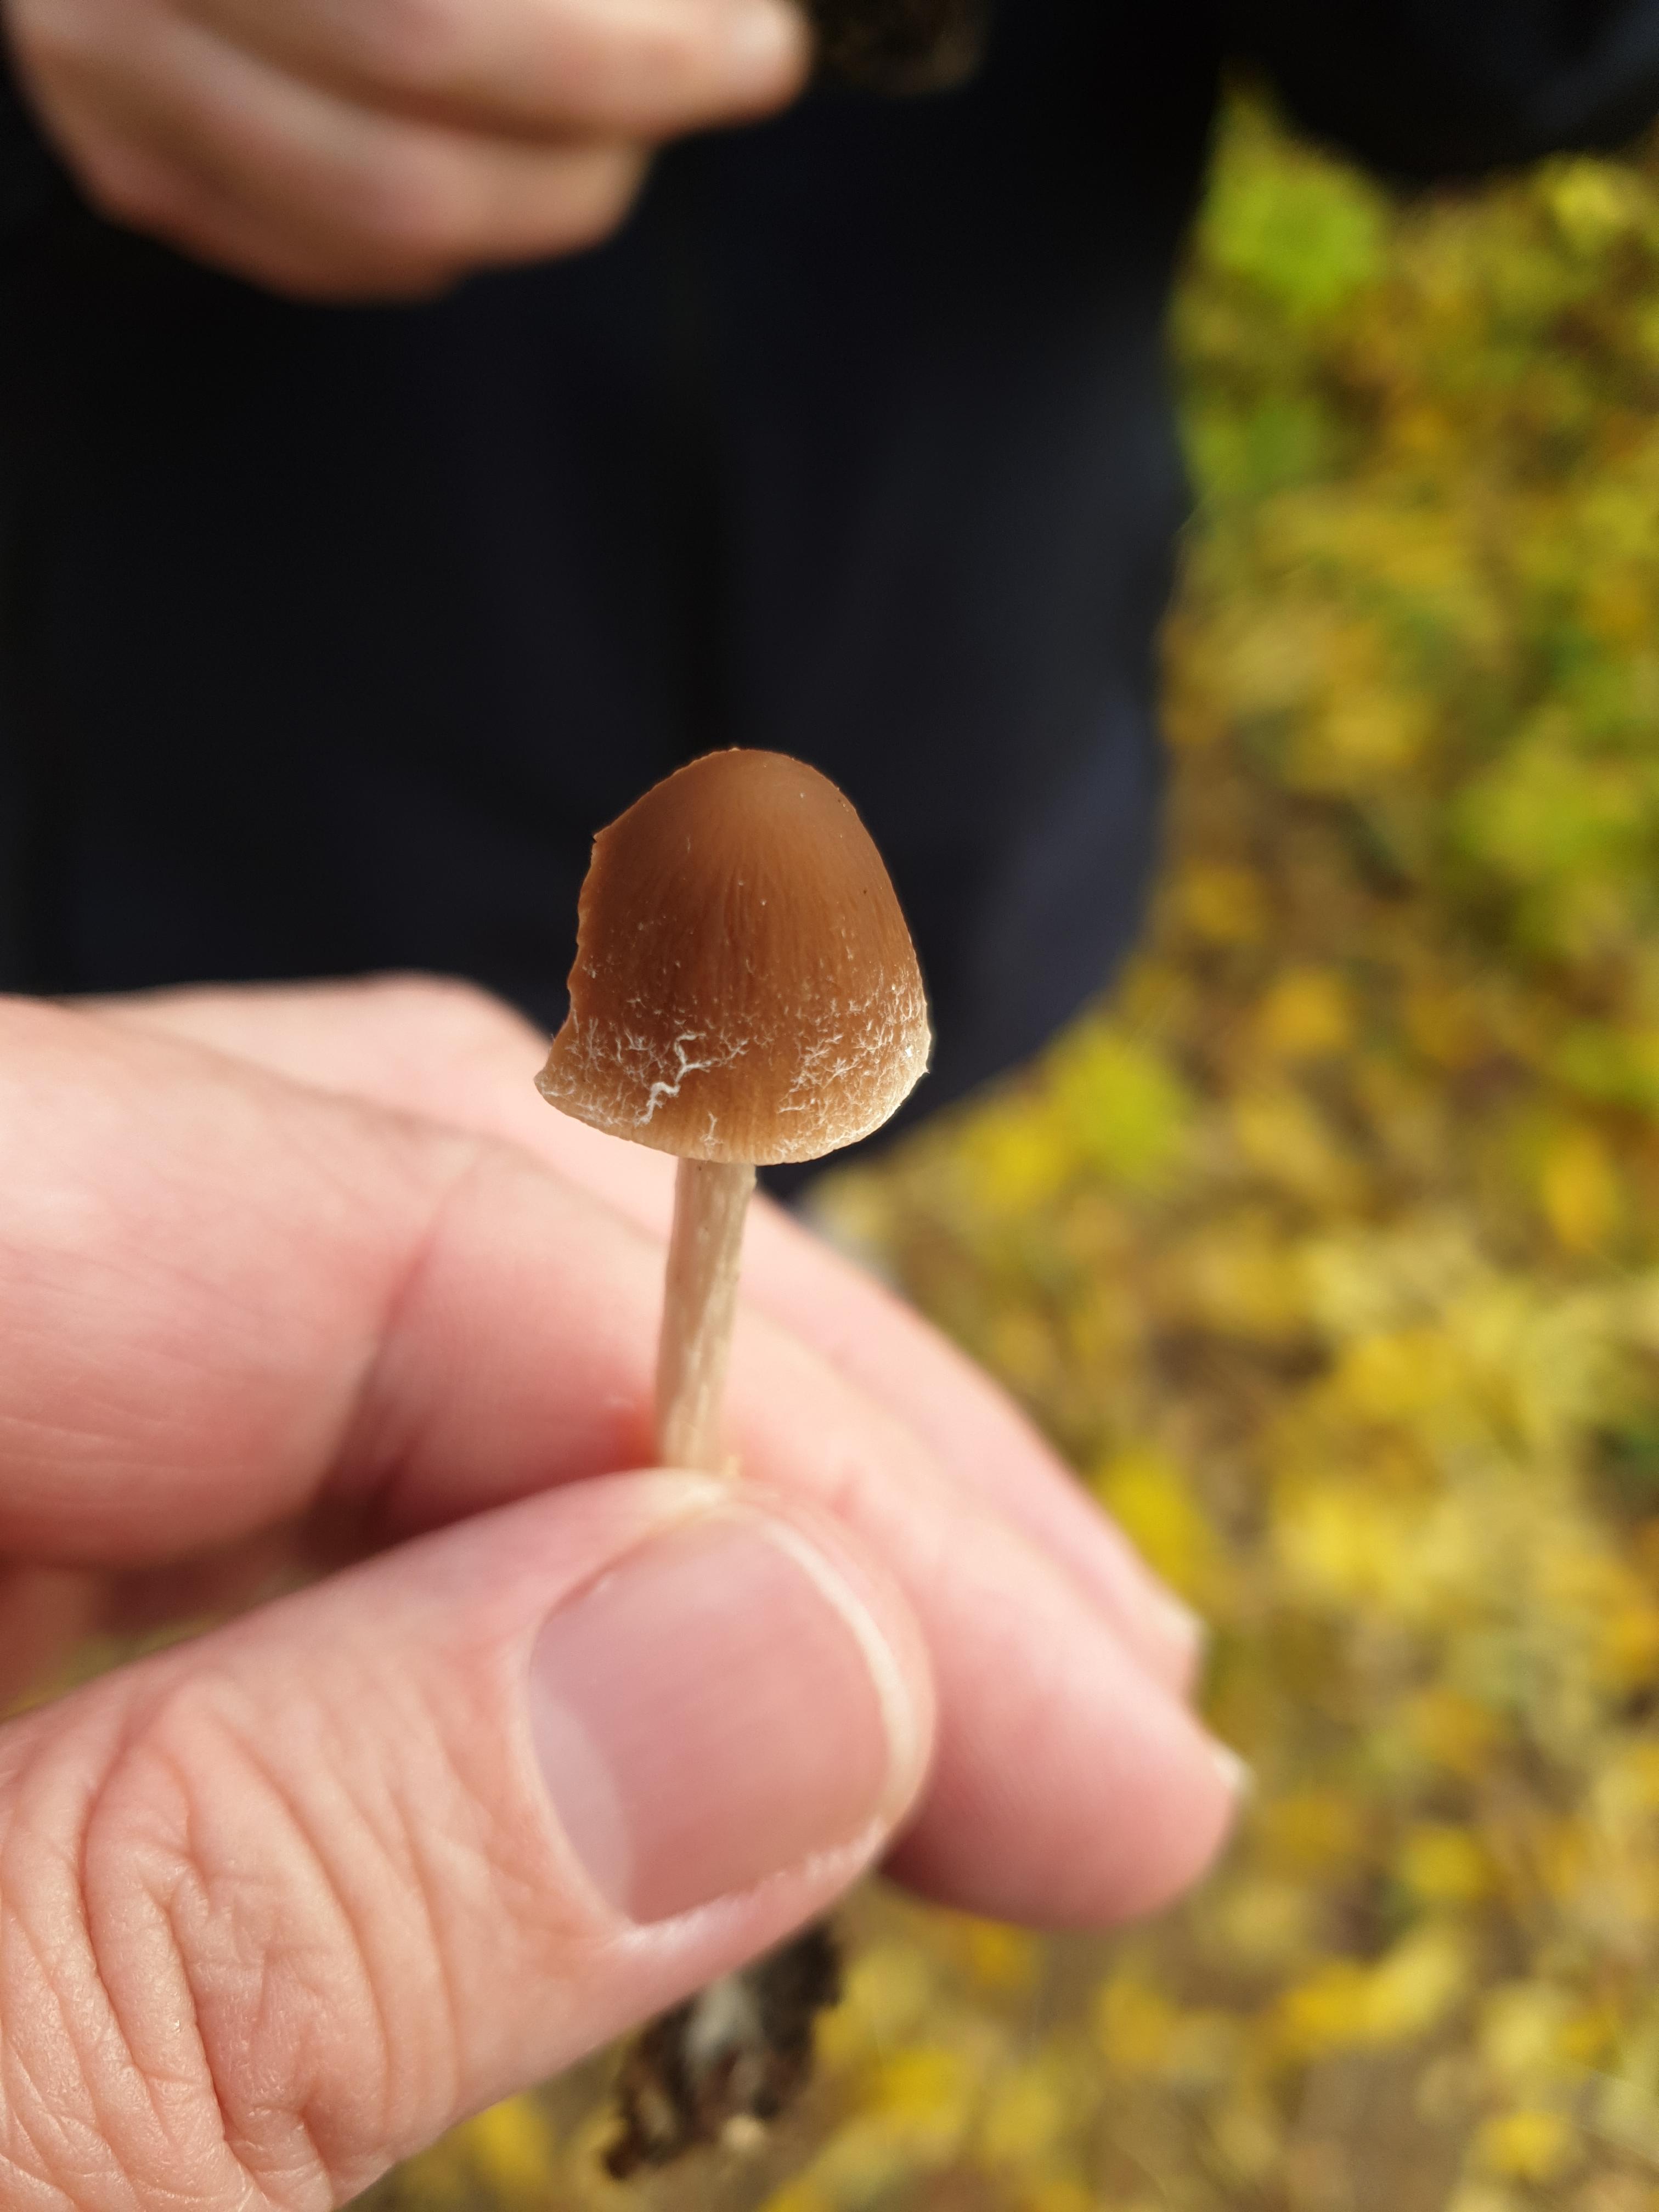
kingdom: Fungi
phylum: Basidiomycota
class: Agaricomycetes
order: Agaricales
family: Psathyrellaceae
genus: Psathyrella
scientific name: Psathyrella
